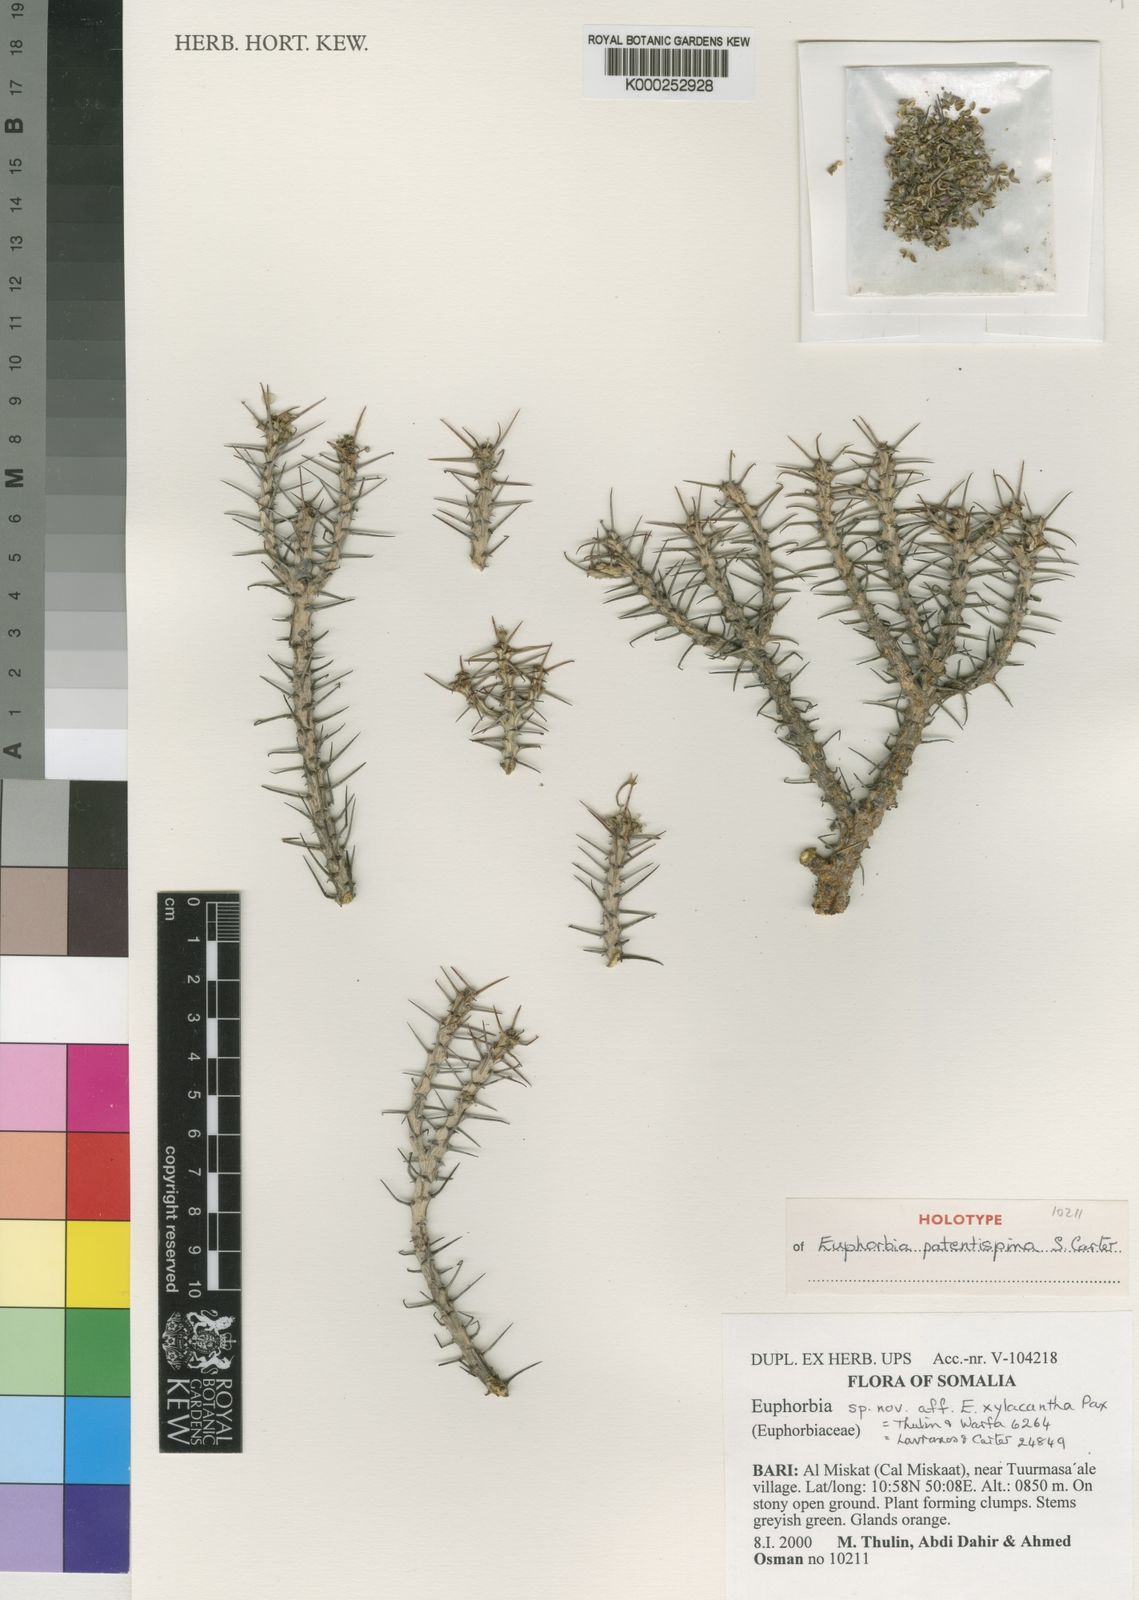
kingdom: Plantae
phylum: Tracheophyta
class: Magnoliopsida
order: Malpighiales
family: Euphorbiaceae
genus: Euphorbia
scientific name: Euphorbia patentispina
